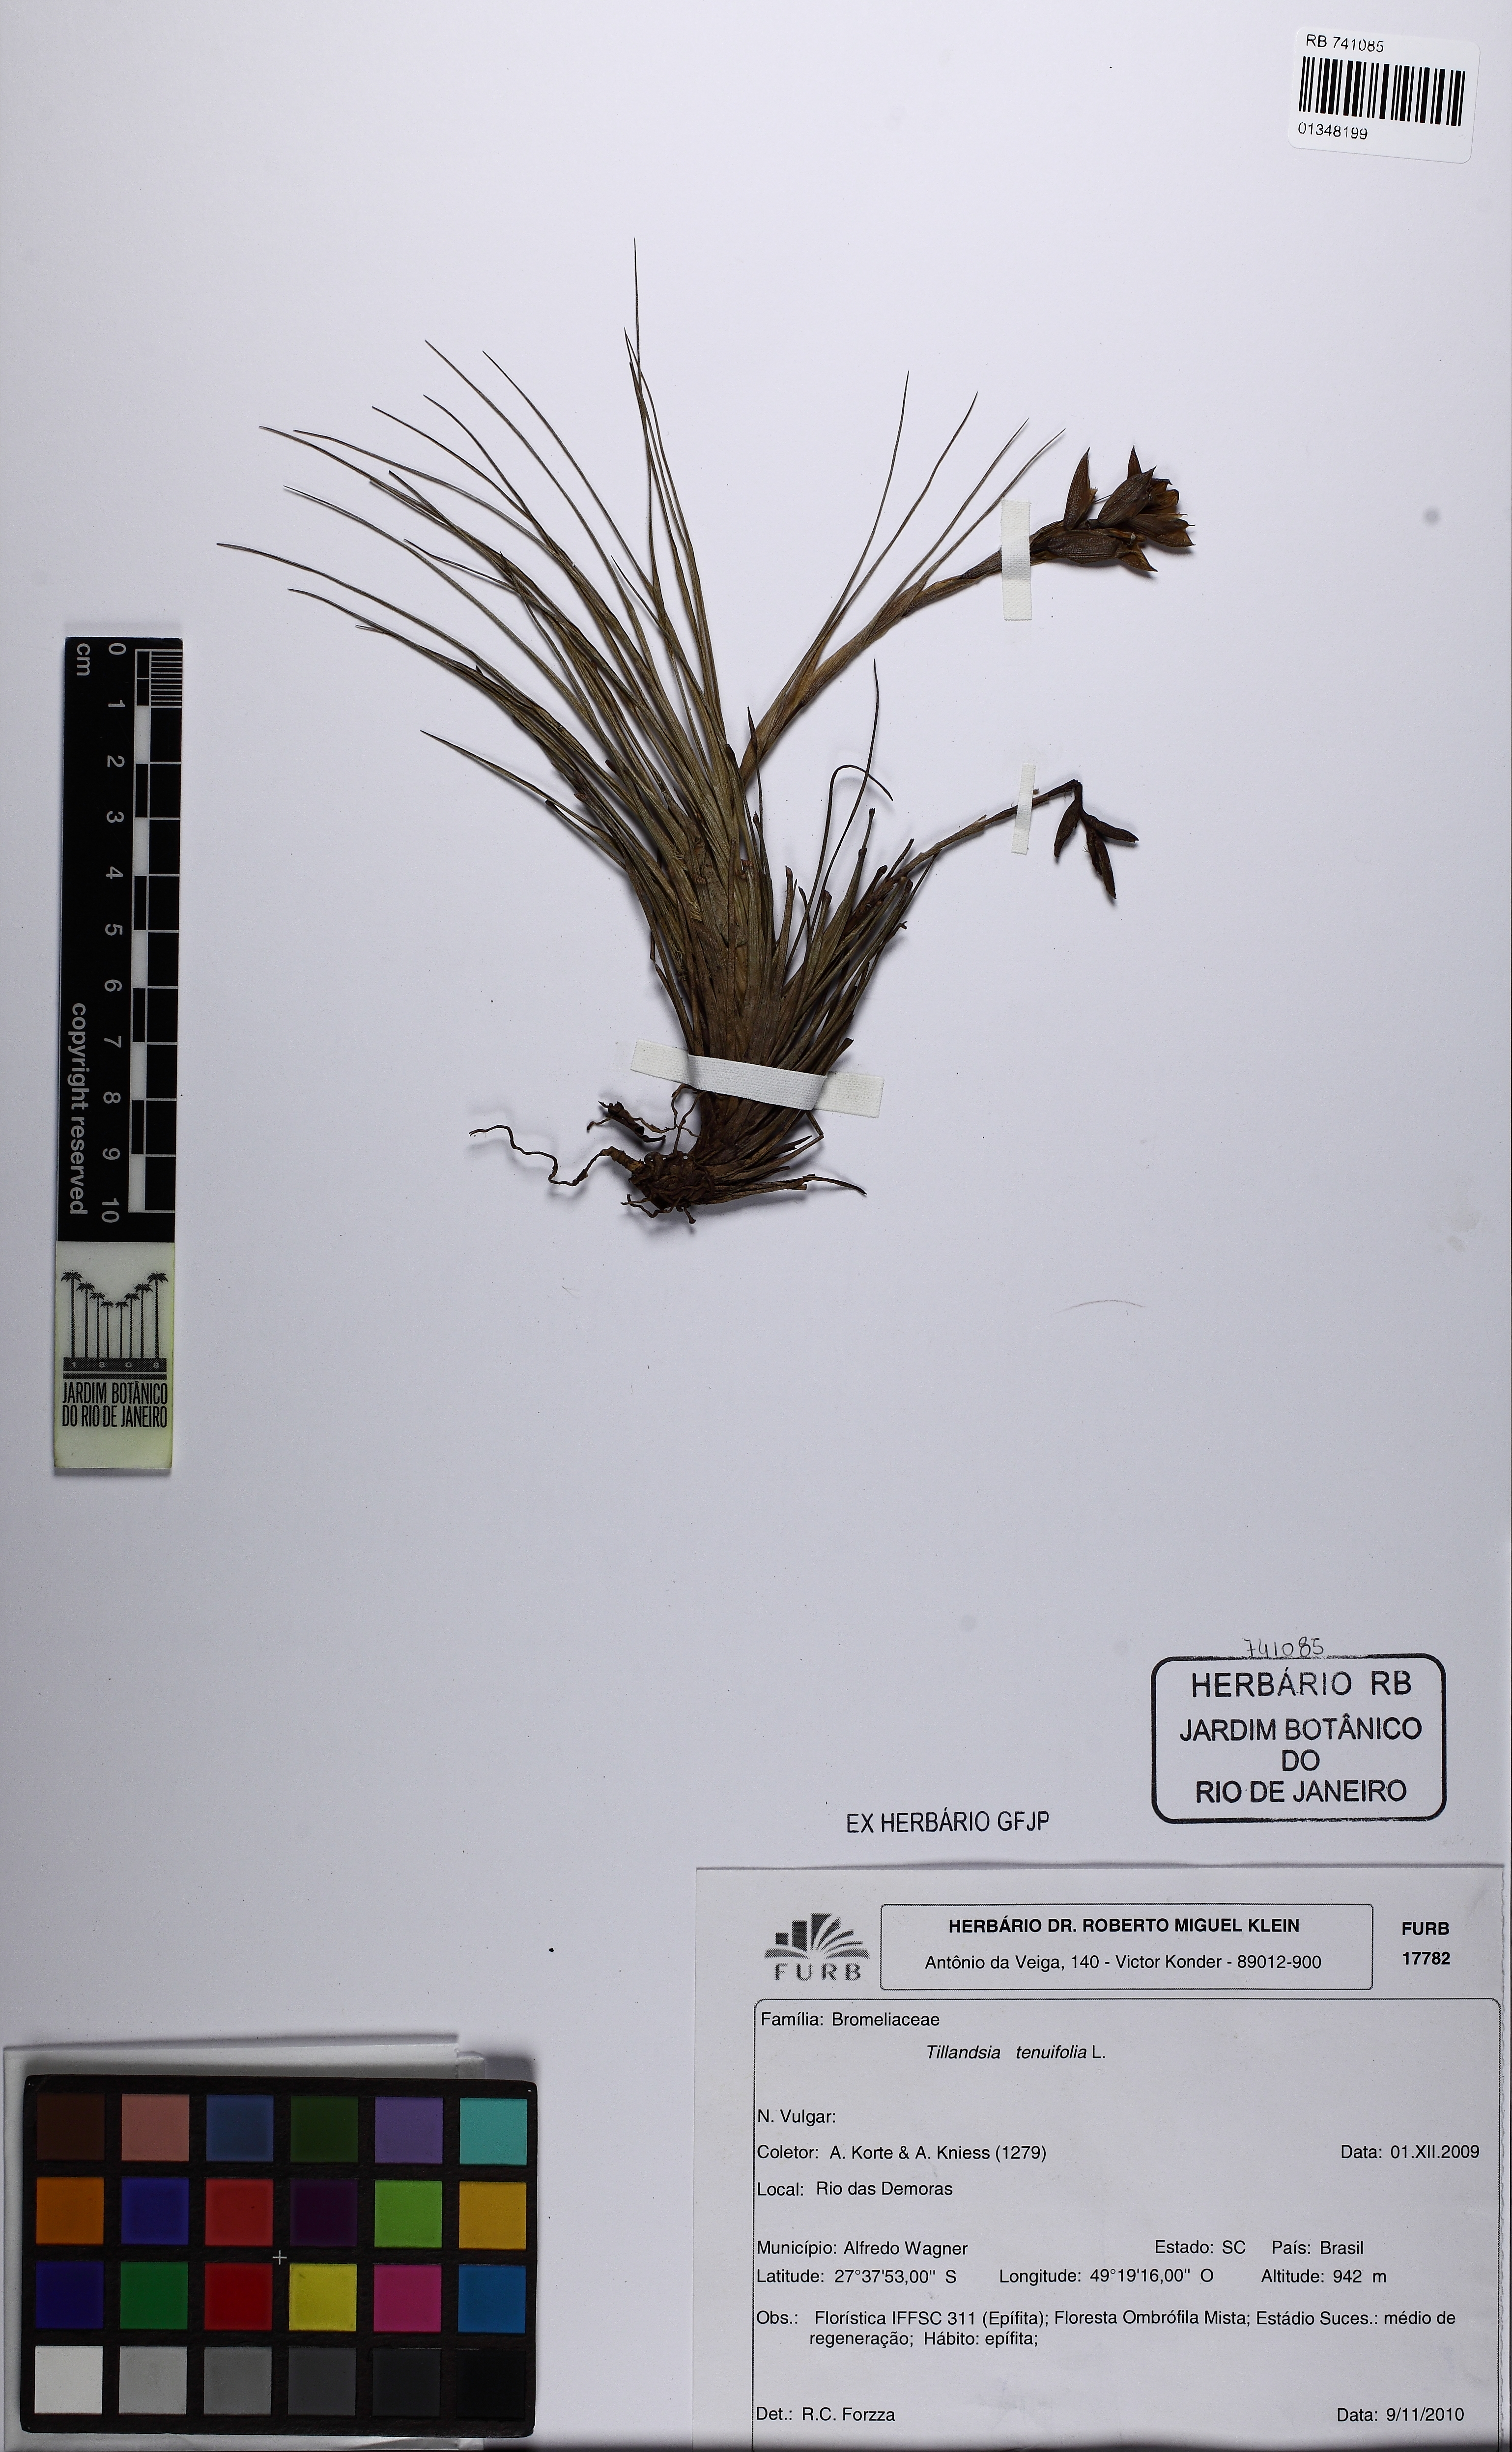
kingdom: Plantae
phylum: Tracheophyta
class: Liliopsida
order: Poales
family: Bromeliaceae
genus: Tillandsia
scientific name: Tillandsia montana
